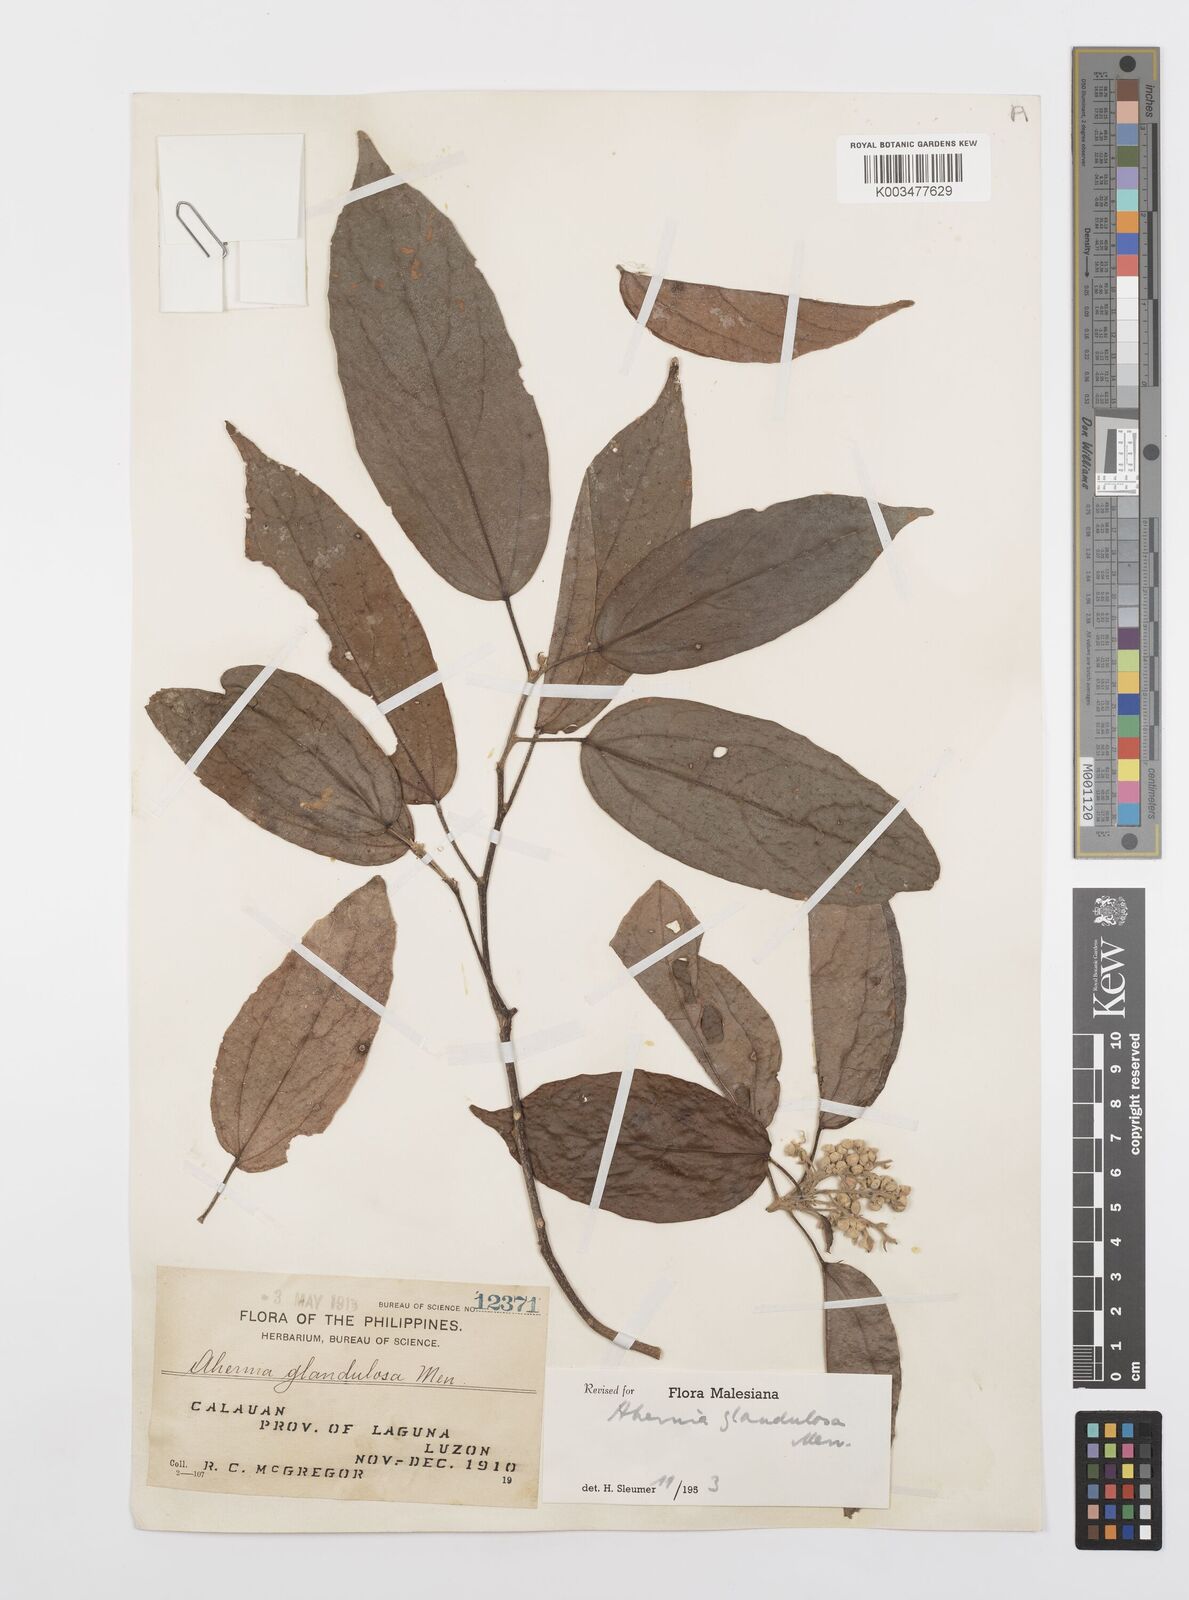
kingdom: Plantae
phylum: Tracheophyta
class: Magnoliopsida
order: Malpighiales
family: Achariaceae
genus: Ahernia
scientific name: Ahernia glandulosa
